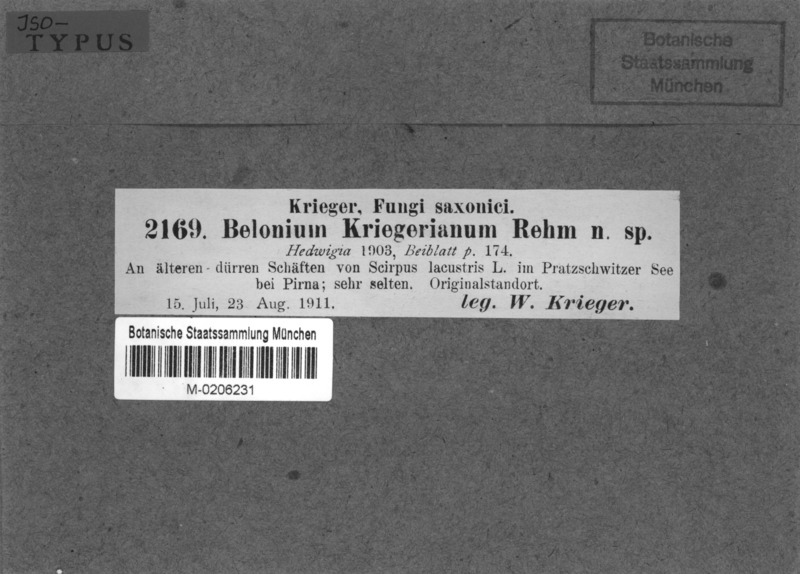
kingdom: Fungi
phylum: Ascomycota
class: Leotiomycetes
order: Helotiales
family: Lachnaceae
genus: Dasyscyphus
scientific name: Dasyscyphus albidoroseus
